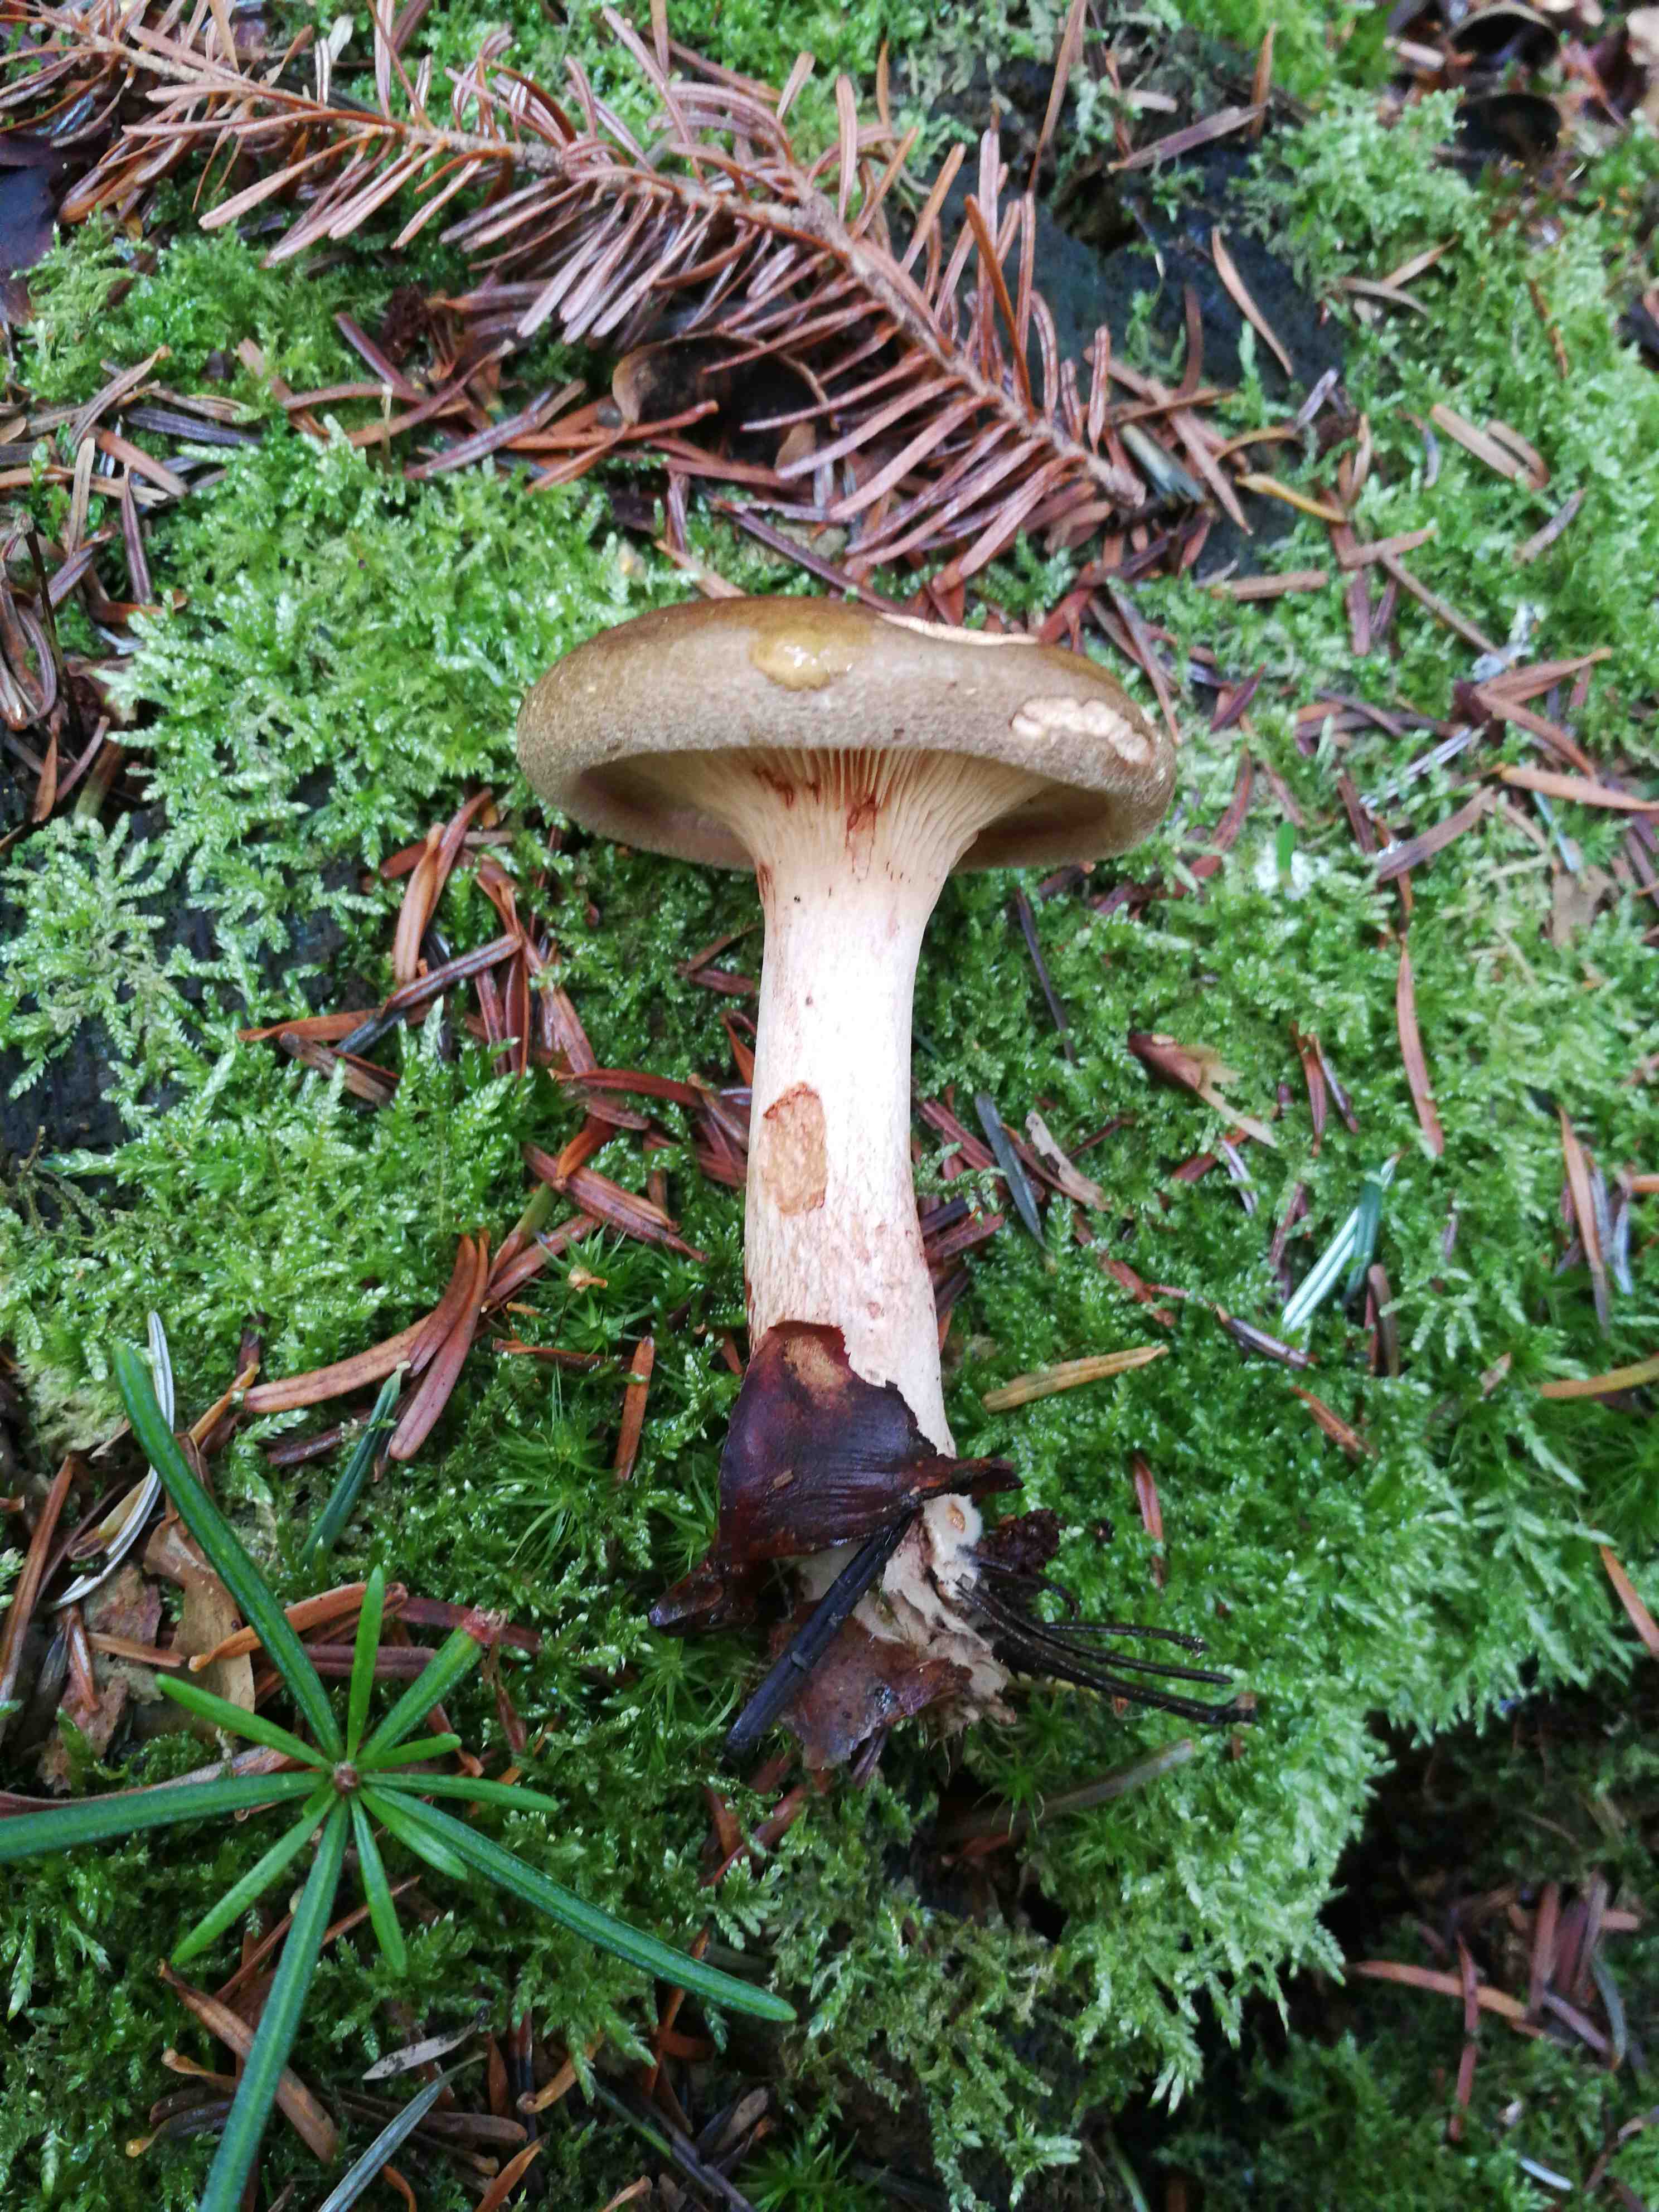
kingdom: Fungi
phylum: Basidiomycota
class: Agaricomycetes
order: Boletales
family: Paxillaceae
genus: Paxillus
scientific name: Paxillus involutus
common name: almindelig netbladhat
